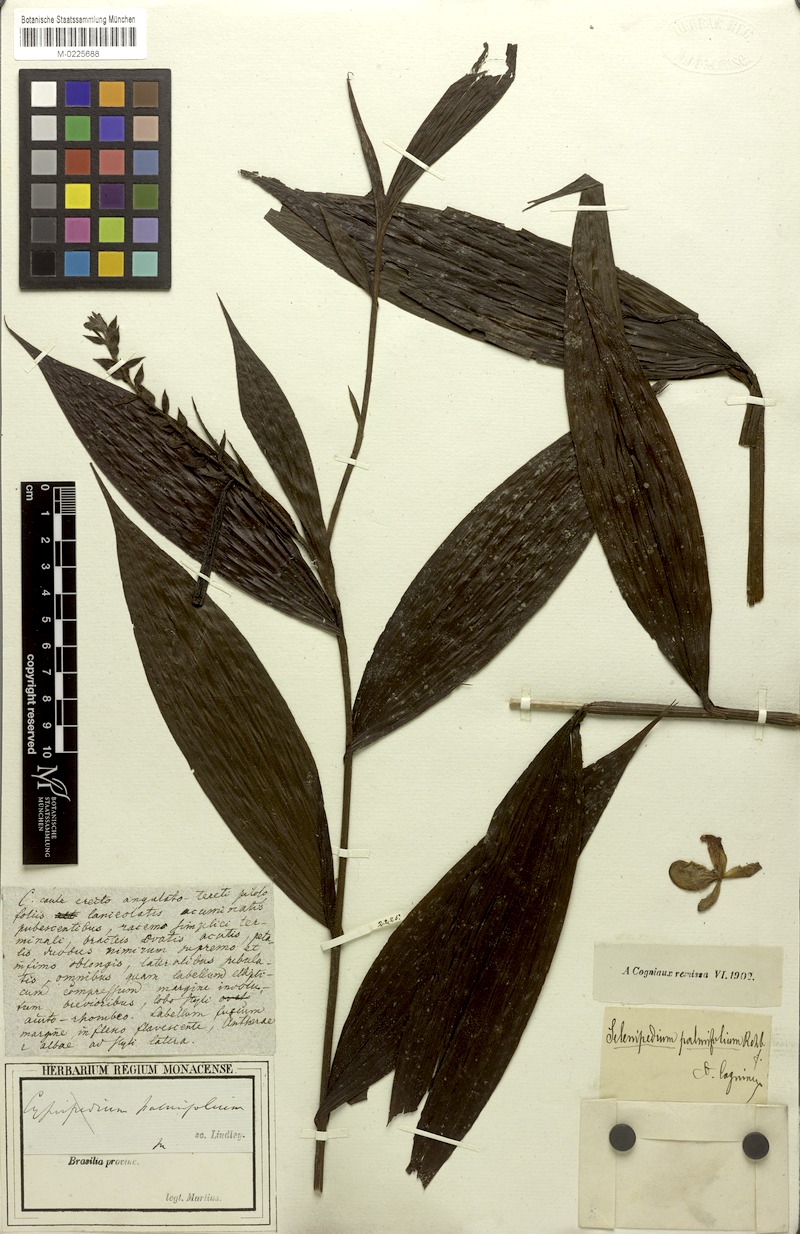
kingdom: Plantae
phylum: Tracheophyta
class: Liliopsida
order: Asparagales
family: Orchidaceae
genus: Selenipedium
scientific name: Selenipedium palmifolium
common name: Palm-leaf selenipedium
